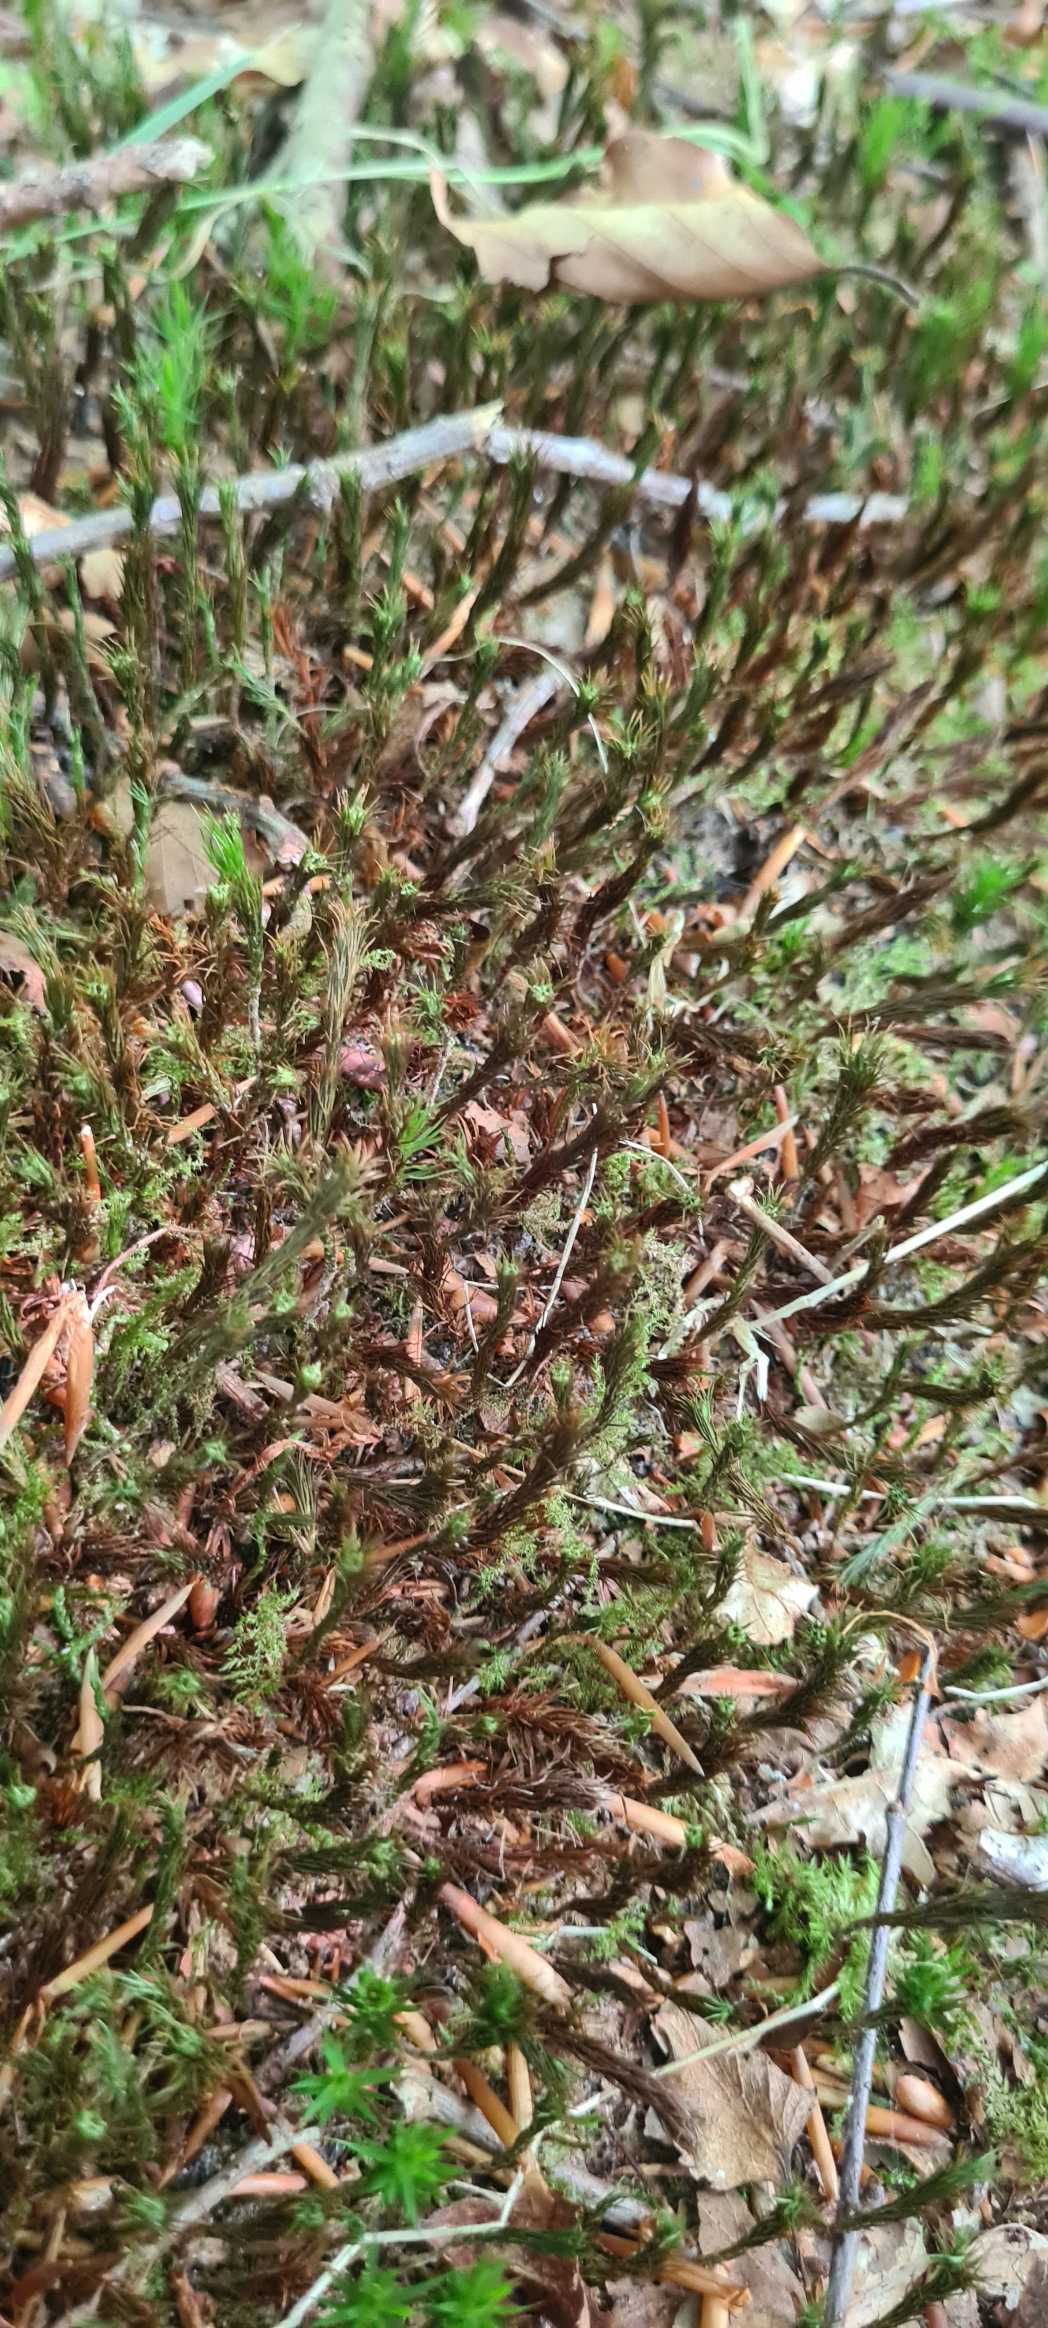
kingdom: Plantae
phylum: Bryophyta
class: Polytrichopsida
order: Polytrichales
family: Polytrichaceae
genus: Polytrichum
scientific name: Polytrichum formosum
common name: Skov-jomfruhår
